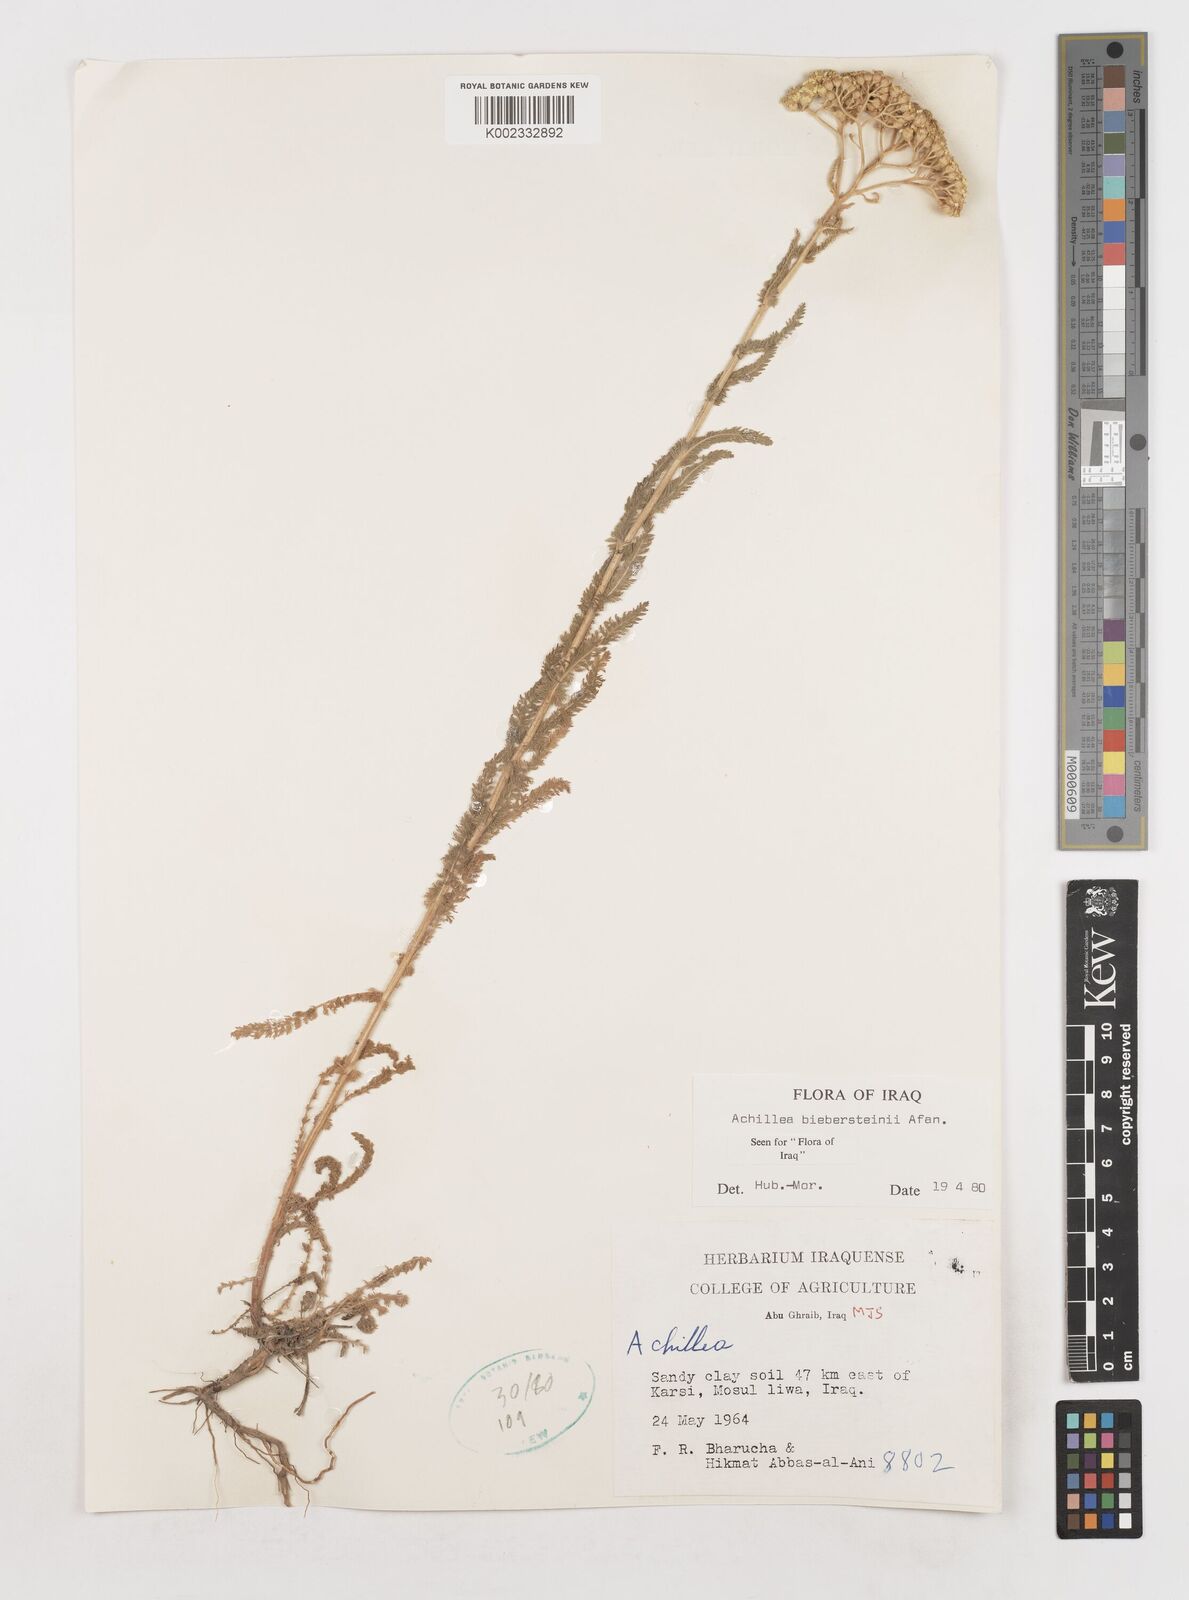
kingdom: Plantae
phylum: Tracheophyta
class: Magnoliopsida
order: Asterales
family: Asteraceae
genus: Achillea
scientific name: Achillea arabica
